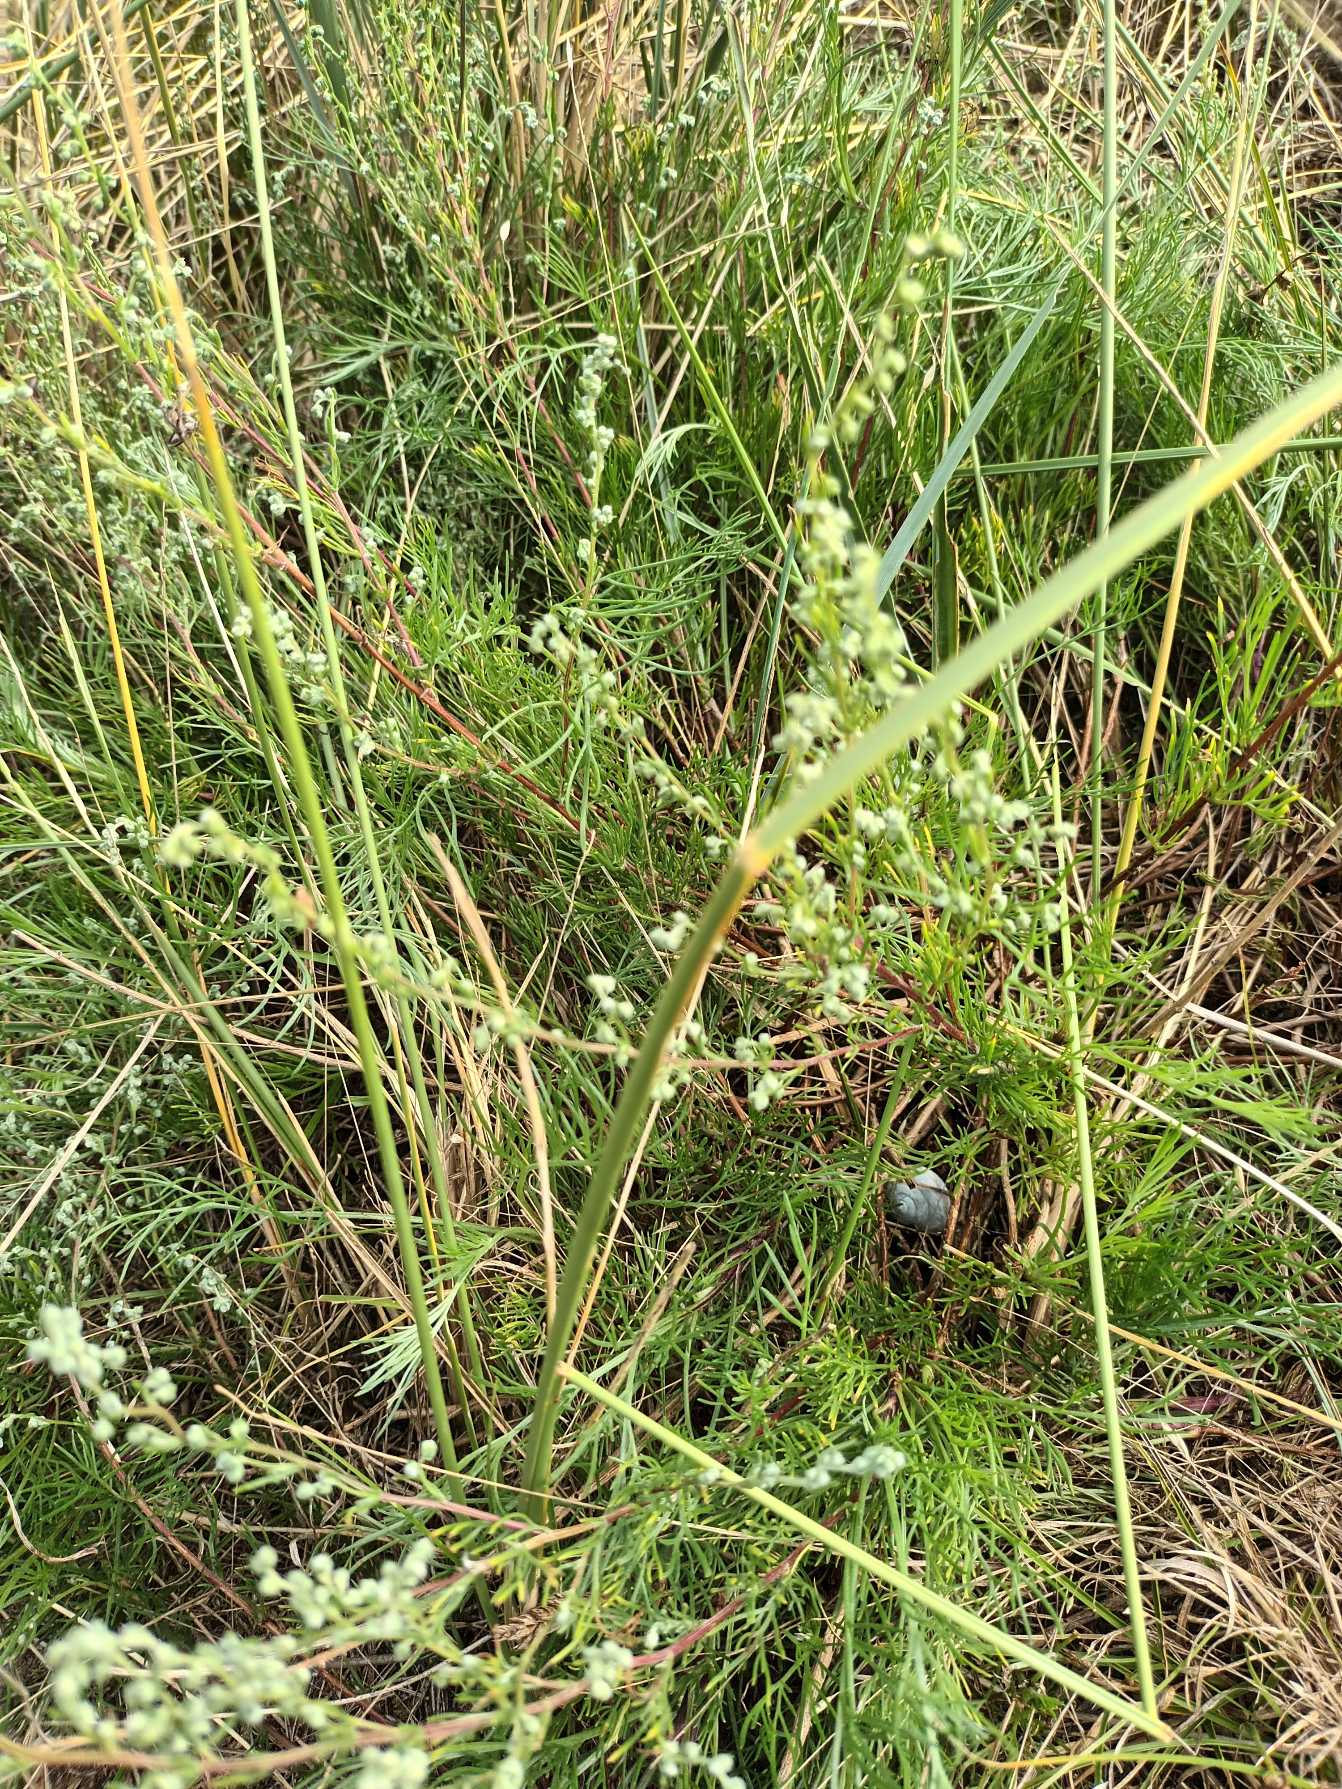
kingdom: Plantae
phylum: Tracheophyta
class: Magnoliopsida
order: Asterales
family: Asteraceae
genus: Artemisia
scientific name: Artemisia campestris
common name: Mark-bynke
